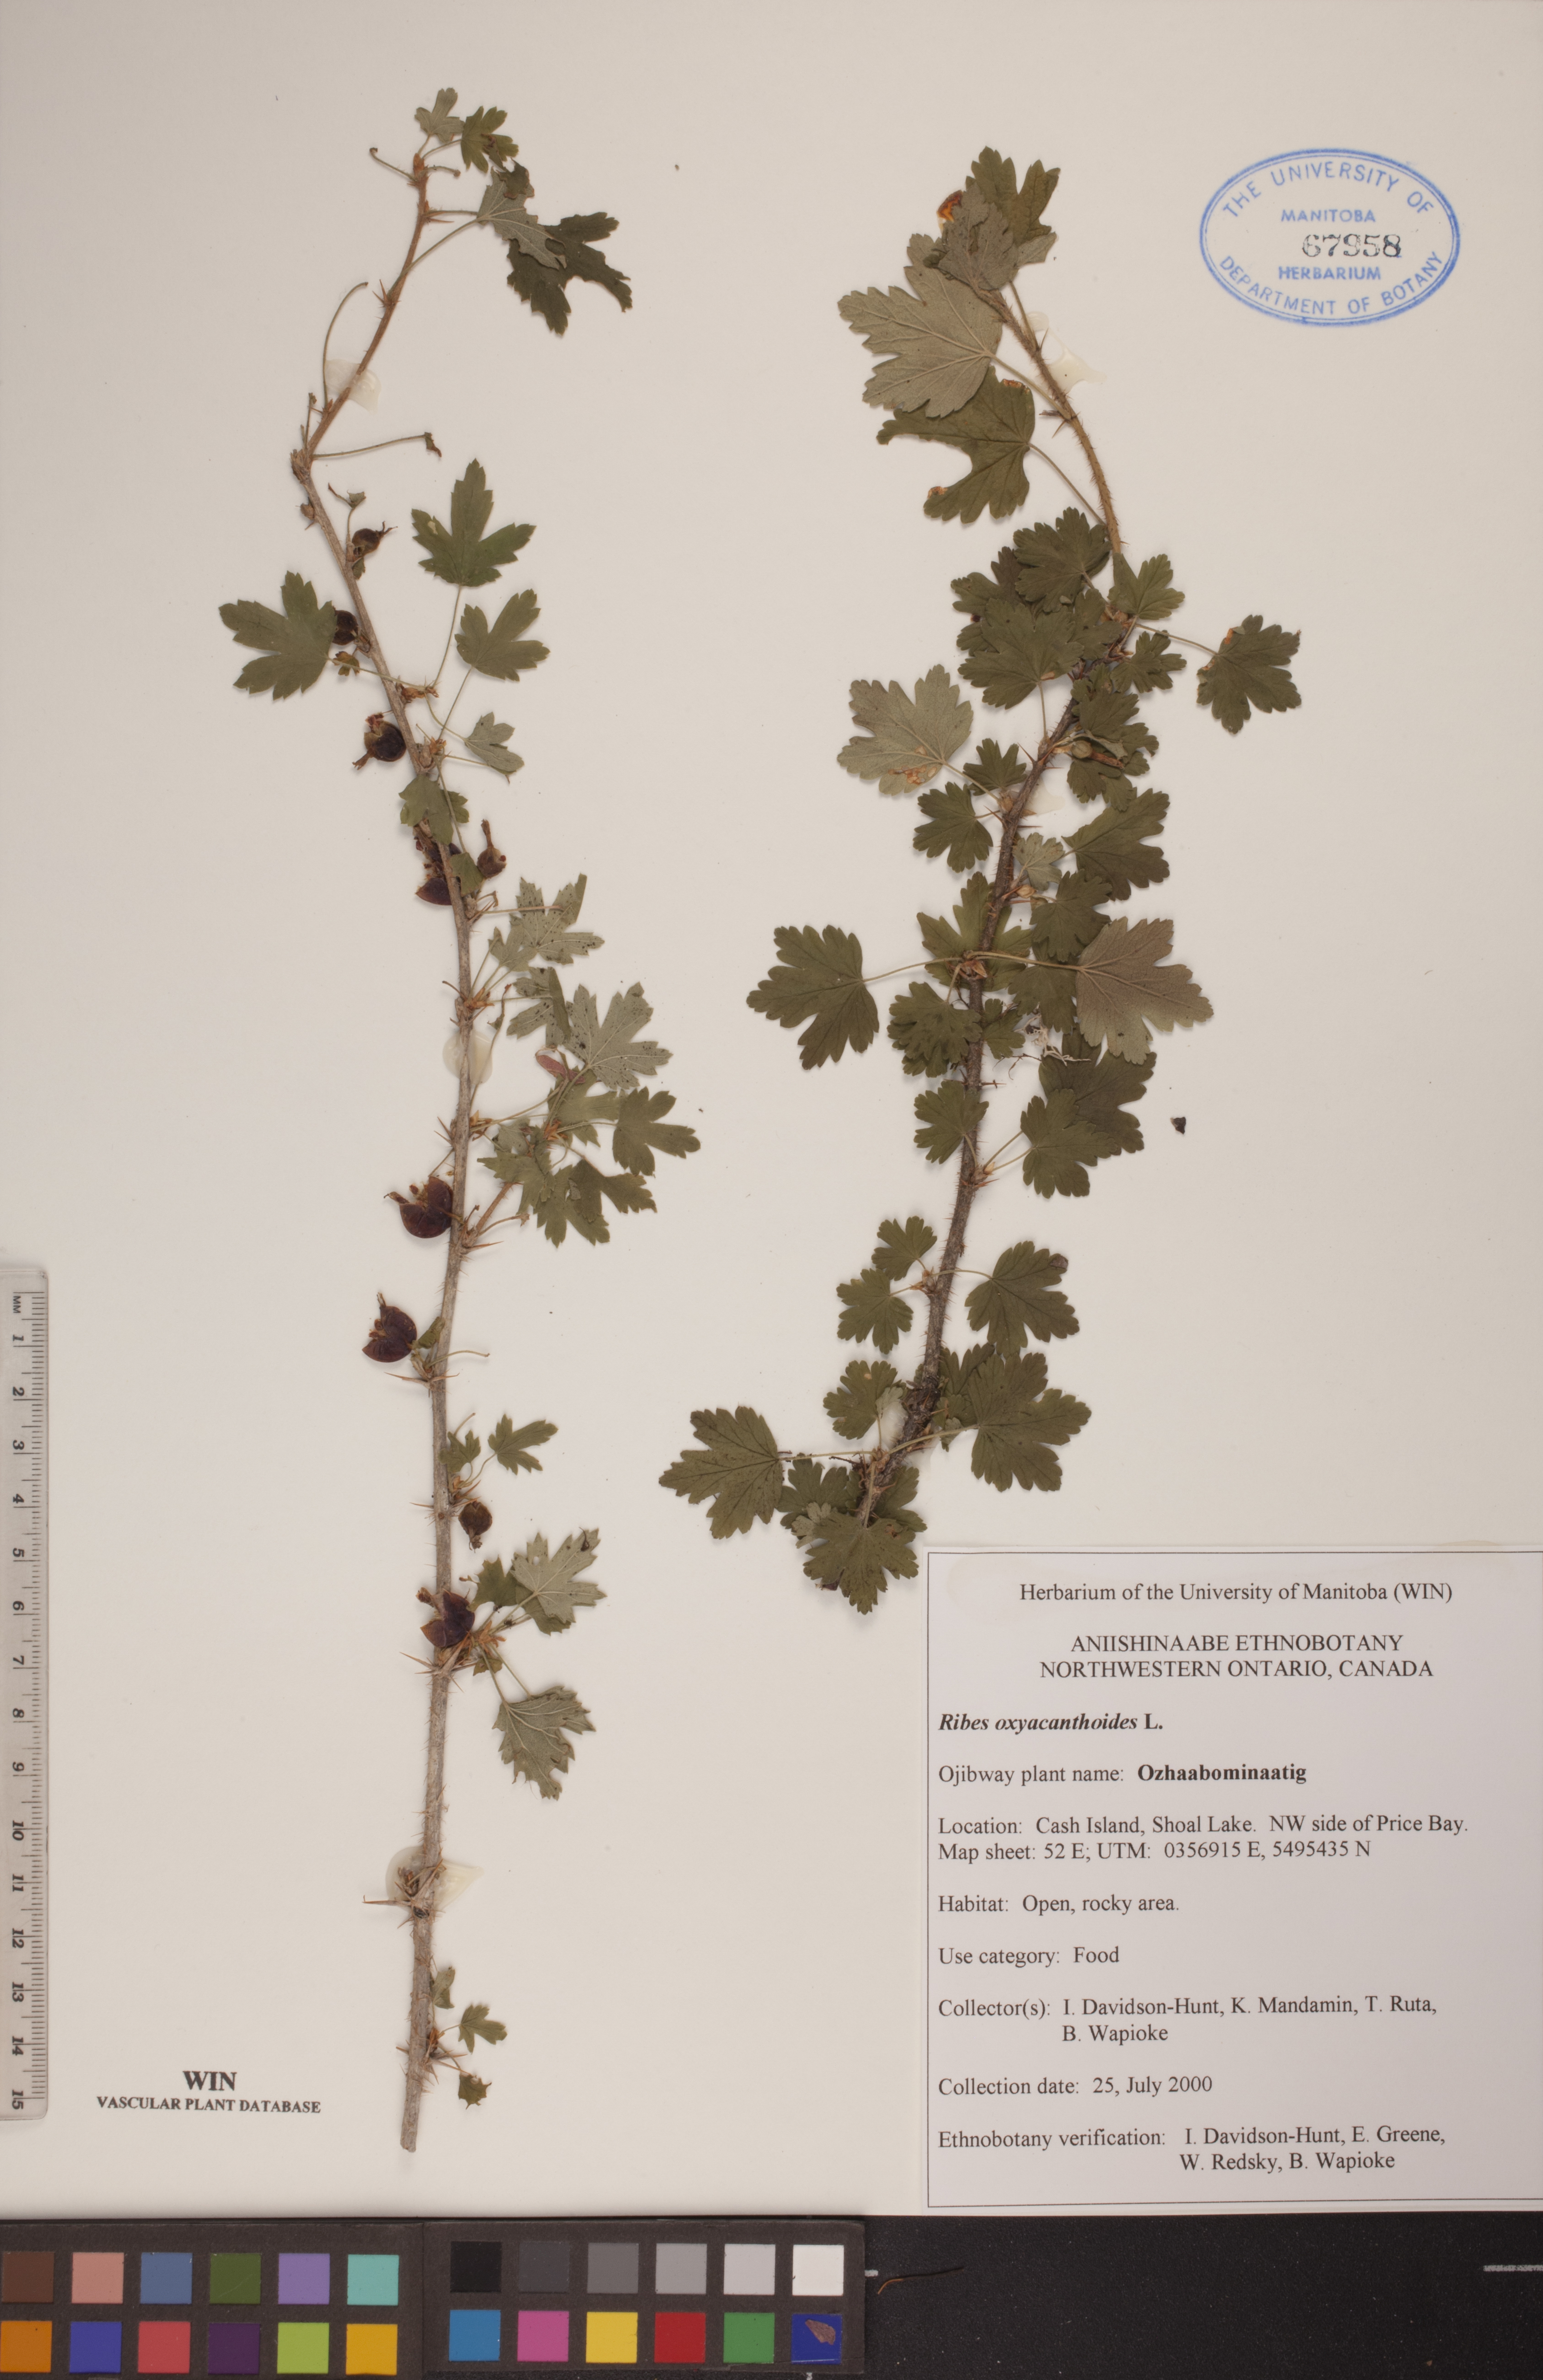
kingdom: Plantae
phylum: Tracheophyta
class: Magnoliopsida
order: Saxifragales
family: Grossulariaceae
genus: Ribes
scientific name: Ribes oxyacanthoides
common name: Northern gooseberry
